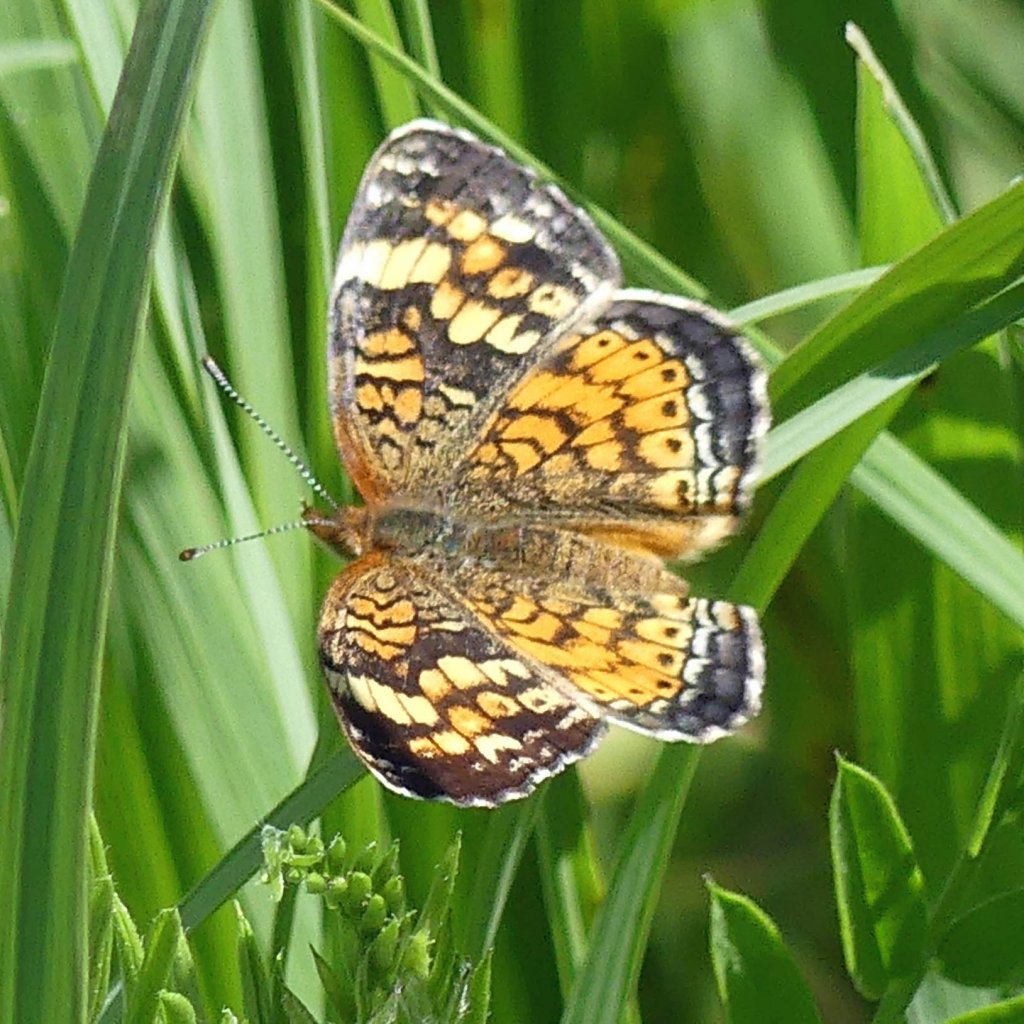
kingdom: Animalia
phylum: Arthropoda
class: Insecta
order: Lepidoptera
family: Nymphalidae
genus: Phyciodes
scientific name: Phyciodes tharos
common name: Pearl Crescent
